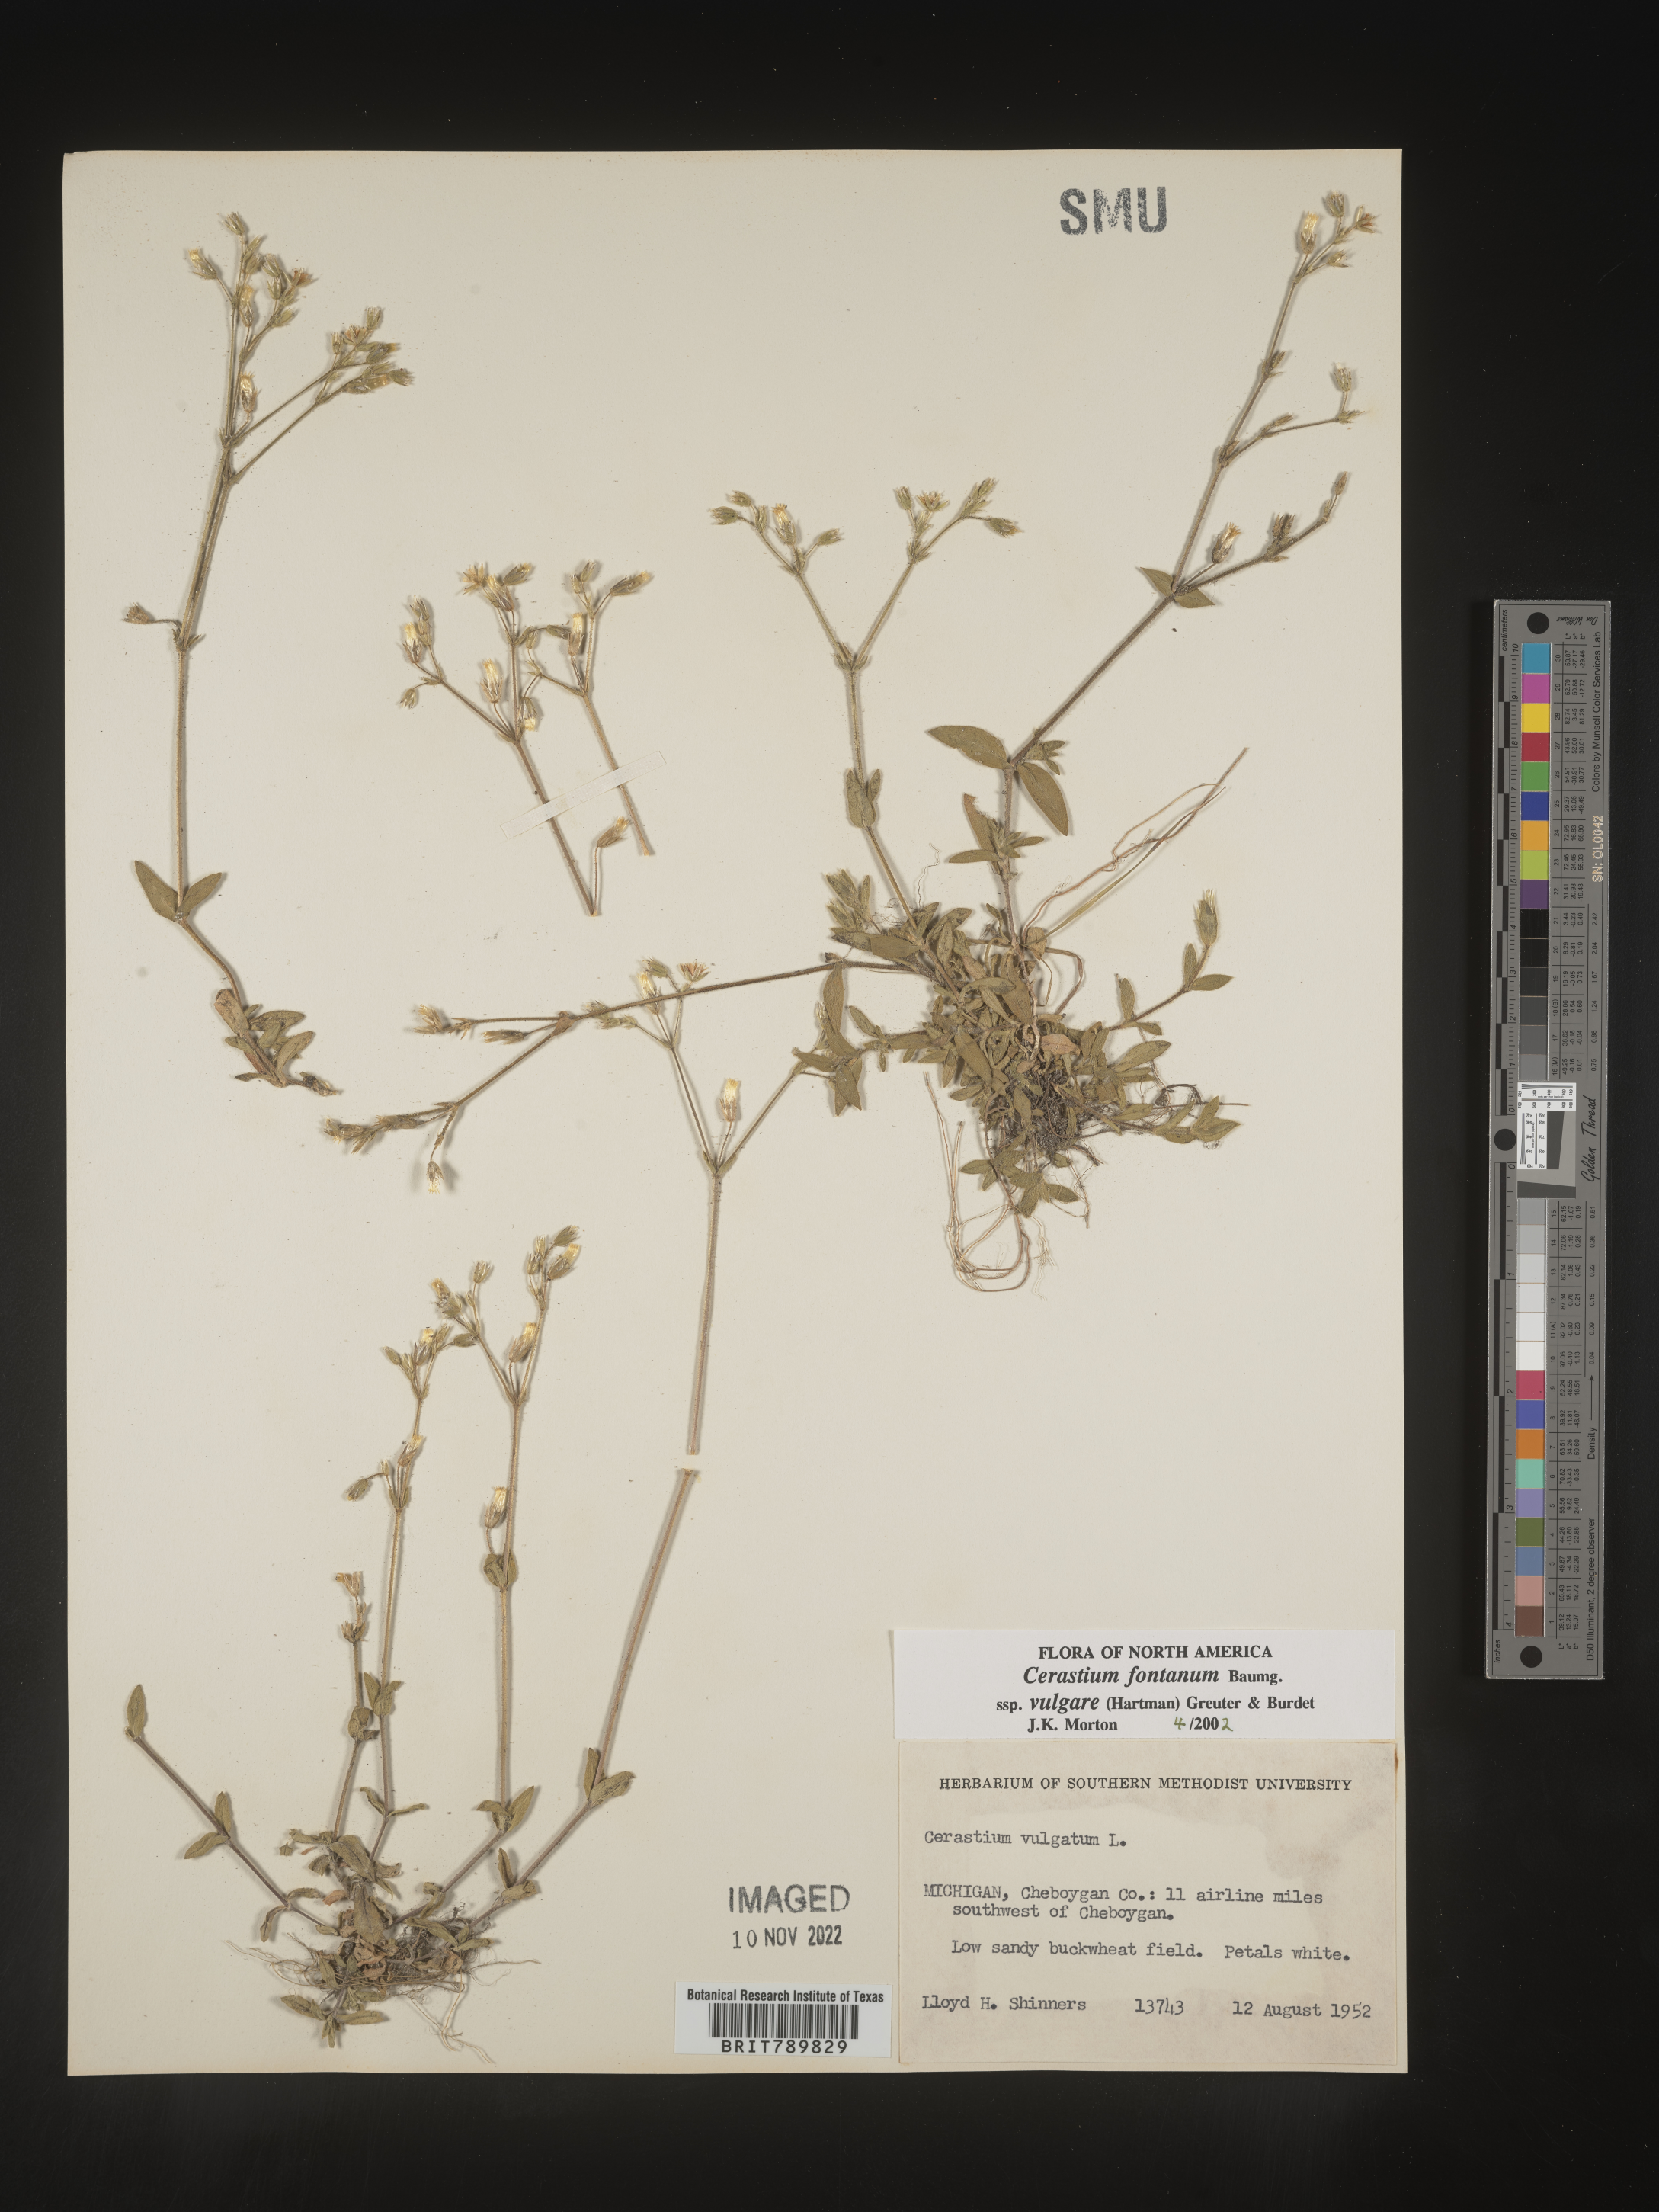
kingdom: Plantae
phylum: Tracheophyta
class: Magnoliopsida
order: Caryophyllales
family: Caryophyllaceae
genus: Cerastium
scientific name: Cerastium fontanum
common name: Common mouse-ear
